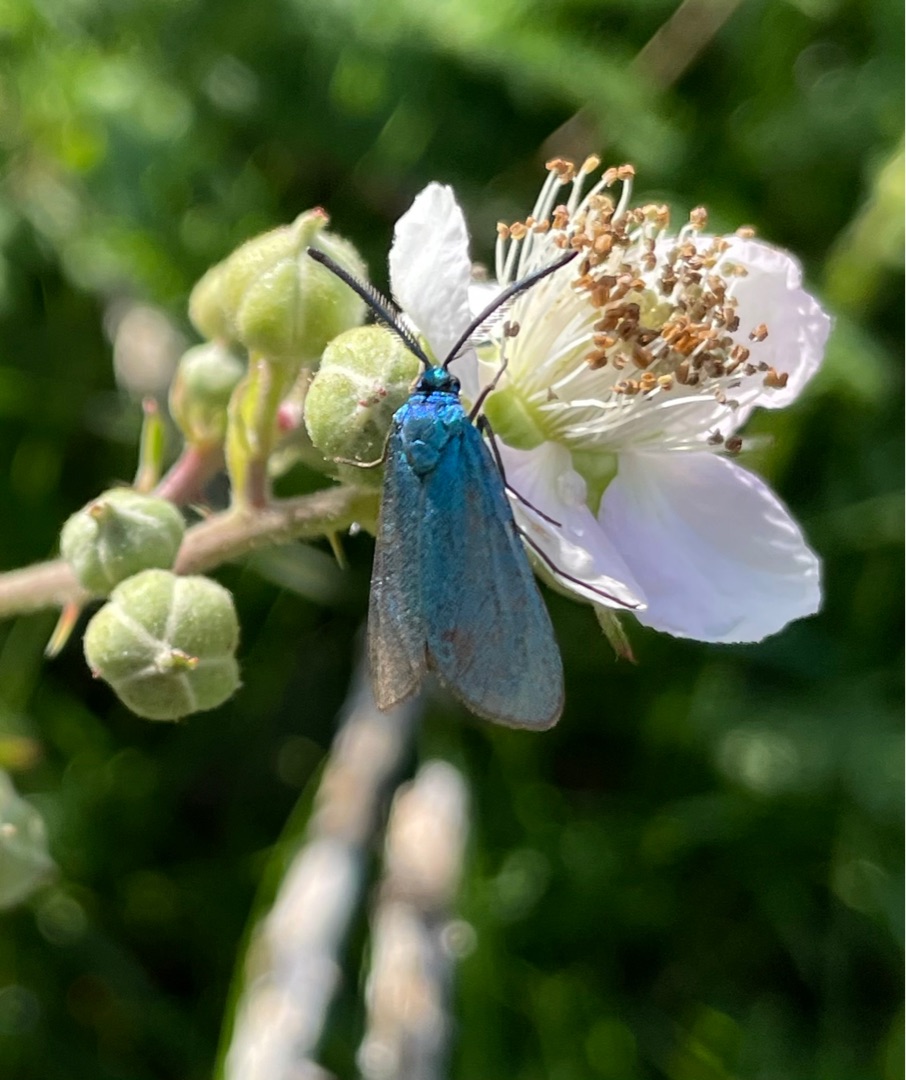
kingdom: Animalia
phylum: Arthropoda
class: Insecta
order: Lepidoptera
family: Zygaenidae
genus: Adscita
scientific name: Adscita statices
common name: Metalvinge
